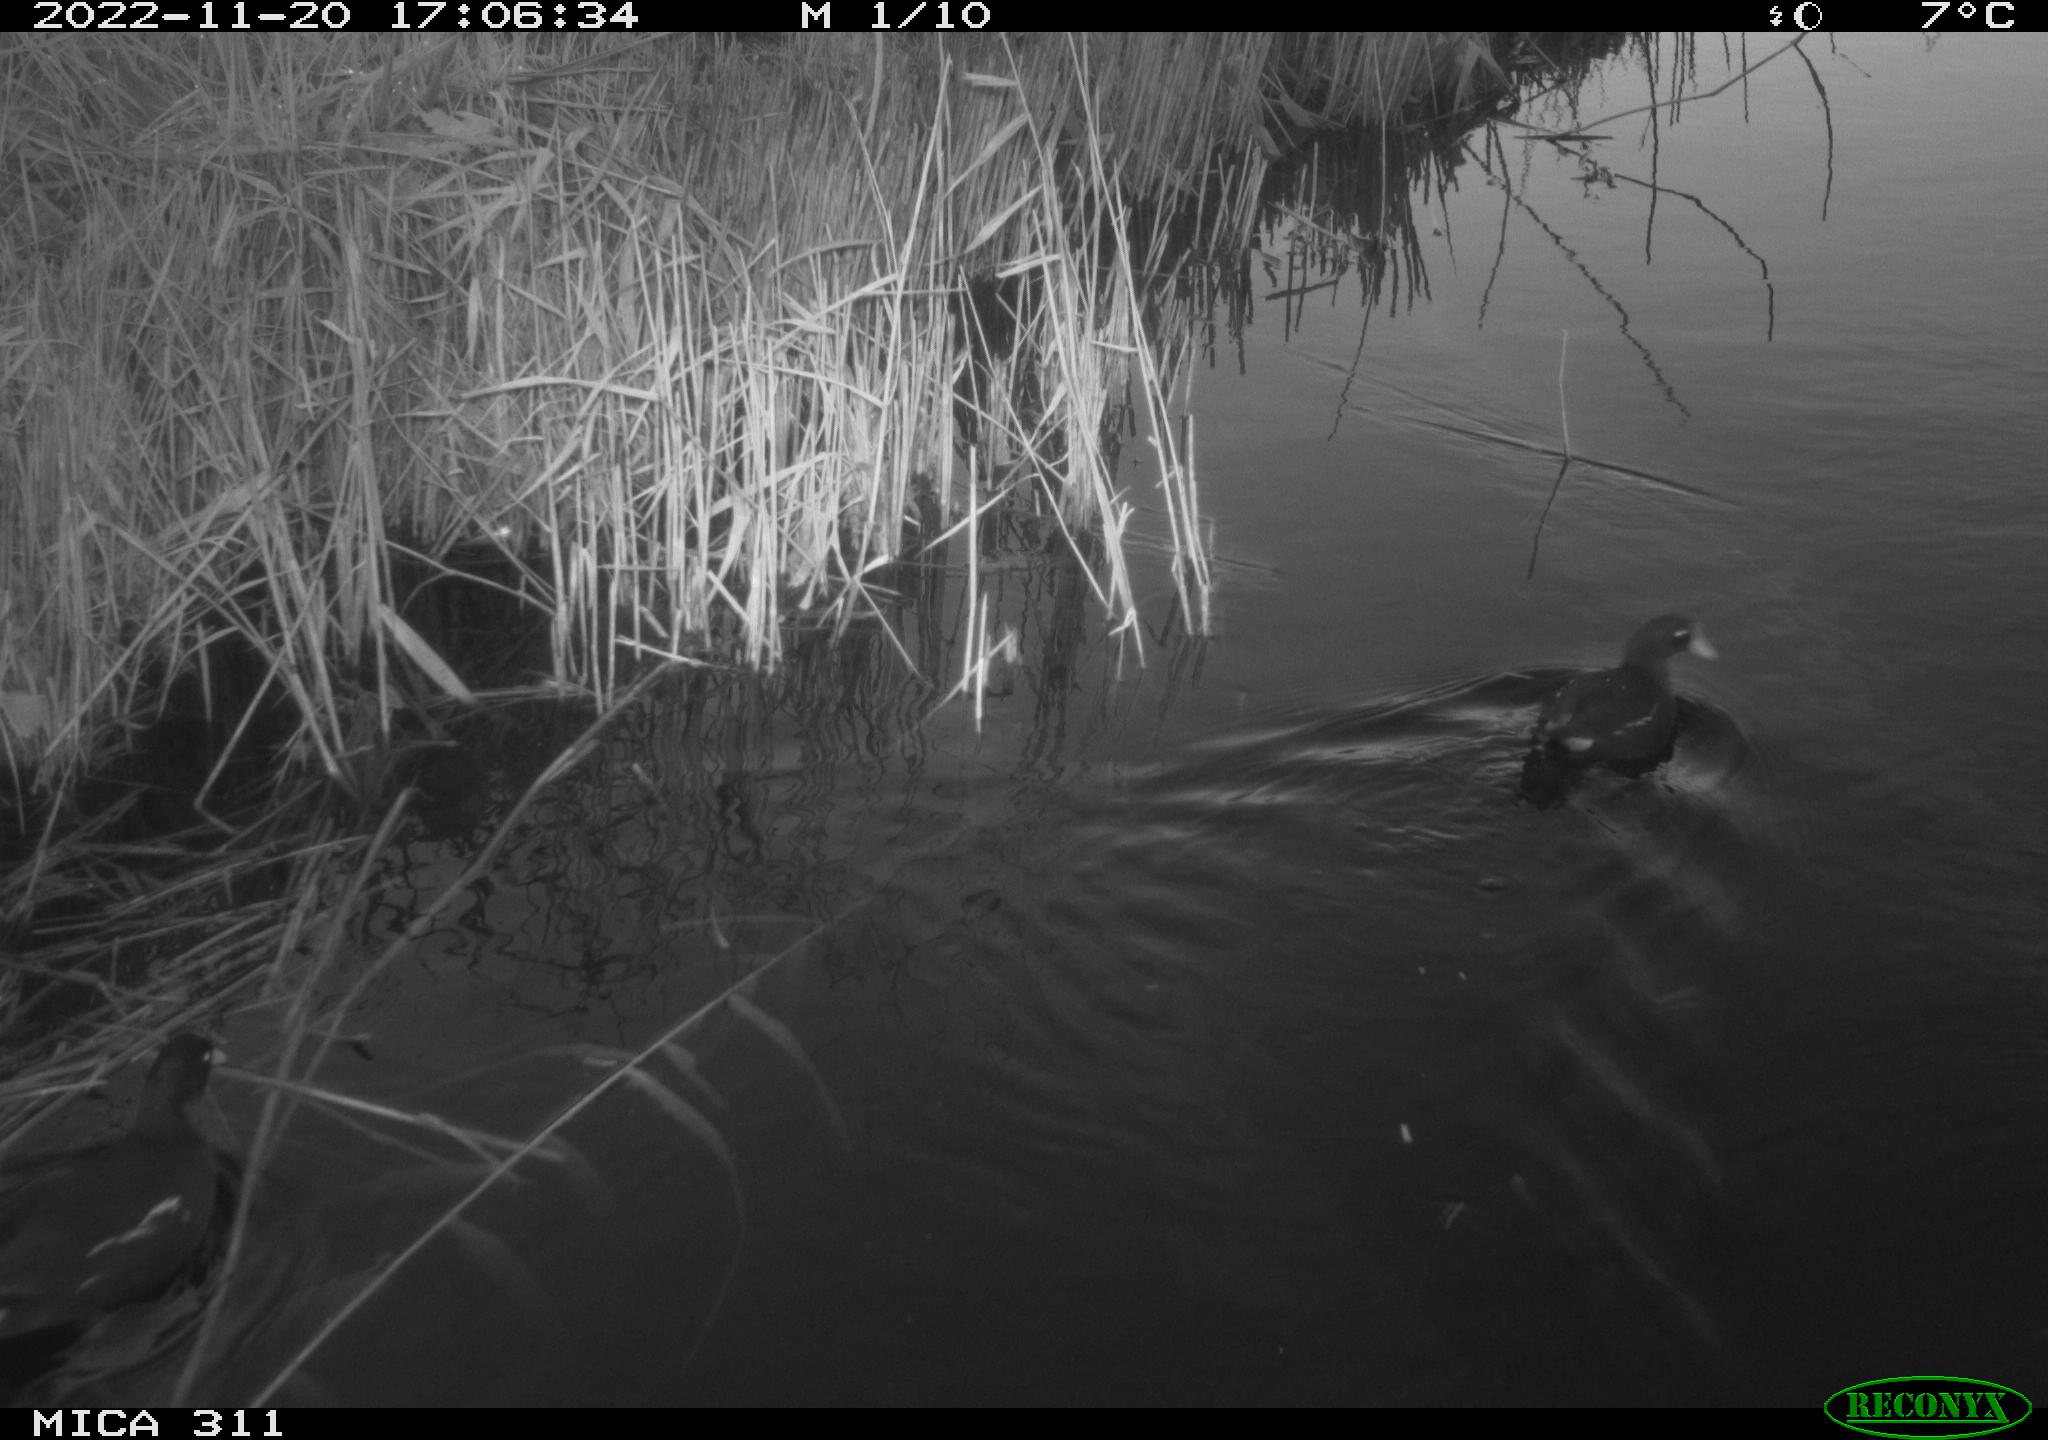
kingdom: Animalia
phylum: Chordata
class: Aves
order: Gruiformes
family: Rallidae
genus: Gallinula
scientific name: Gallinula chloropus
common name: Common moorhen
